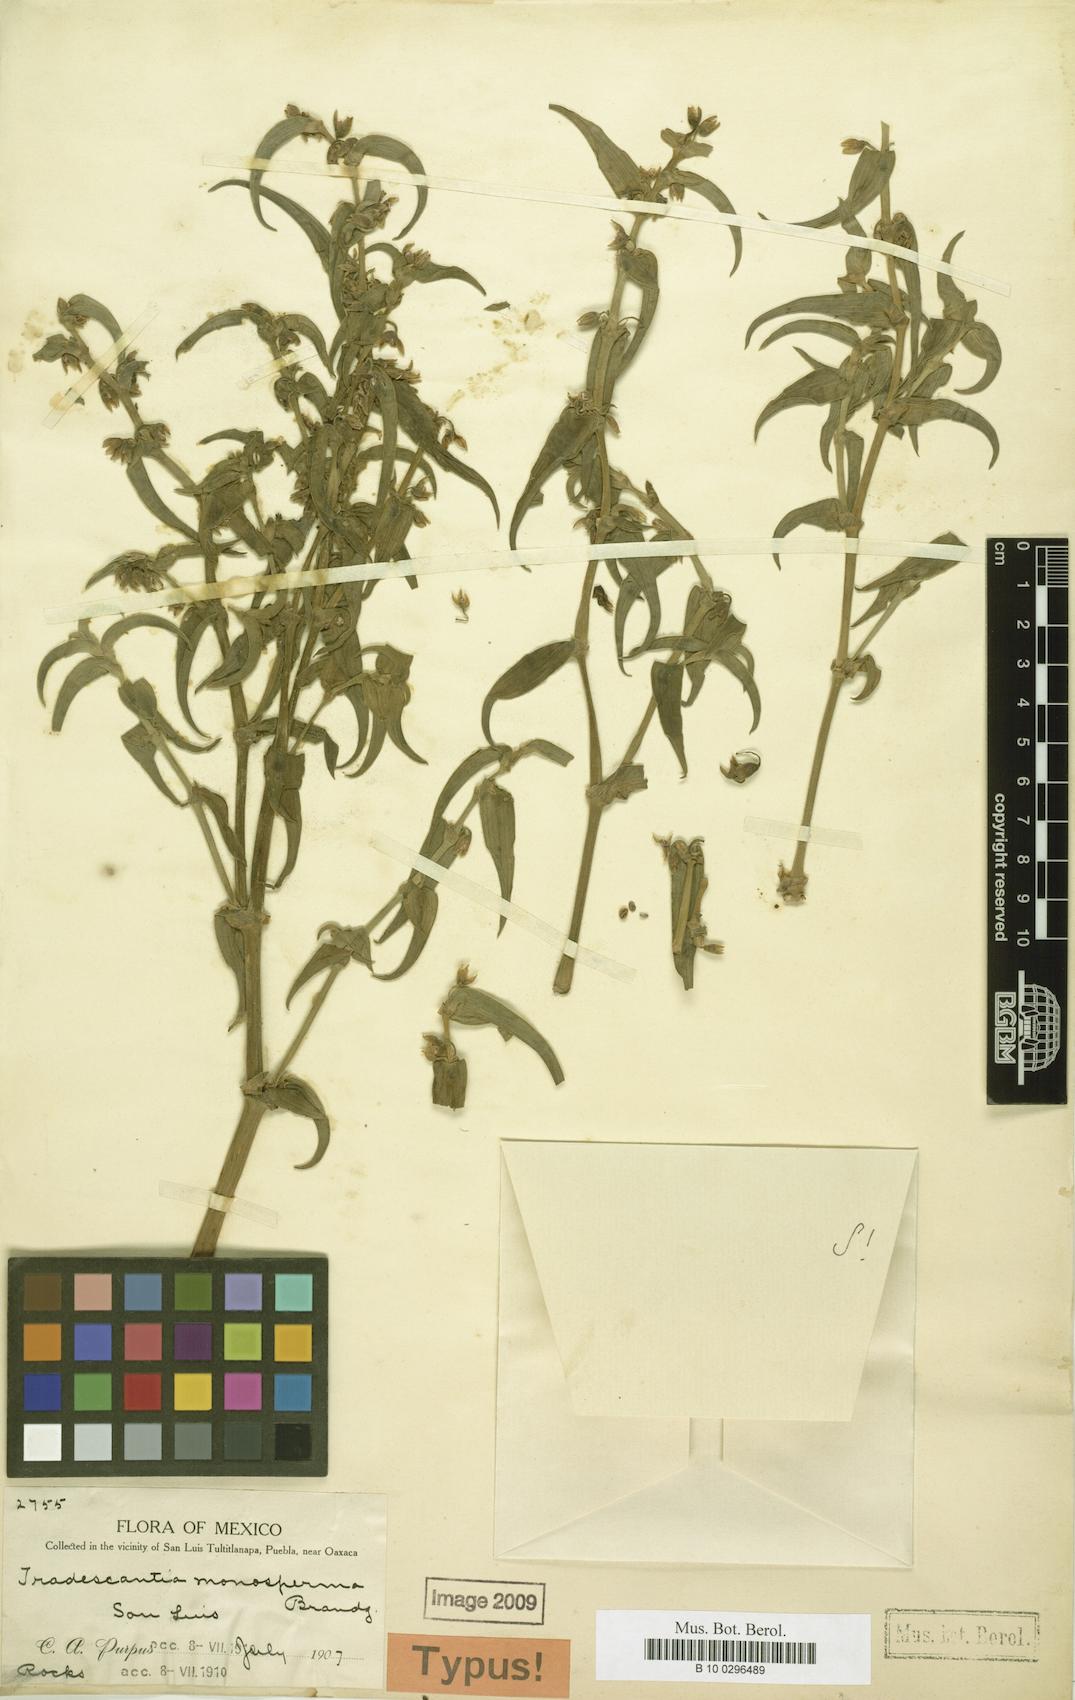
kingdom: Plantae
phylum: Tracheophyta
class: Liliopsida
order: Commelinales
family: Commelinaceae
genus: Tradescantia
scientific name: Tradescantia monosperma
